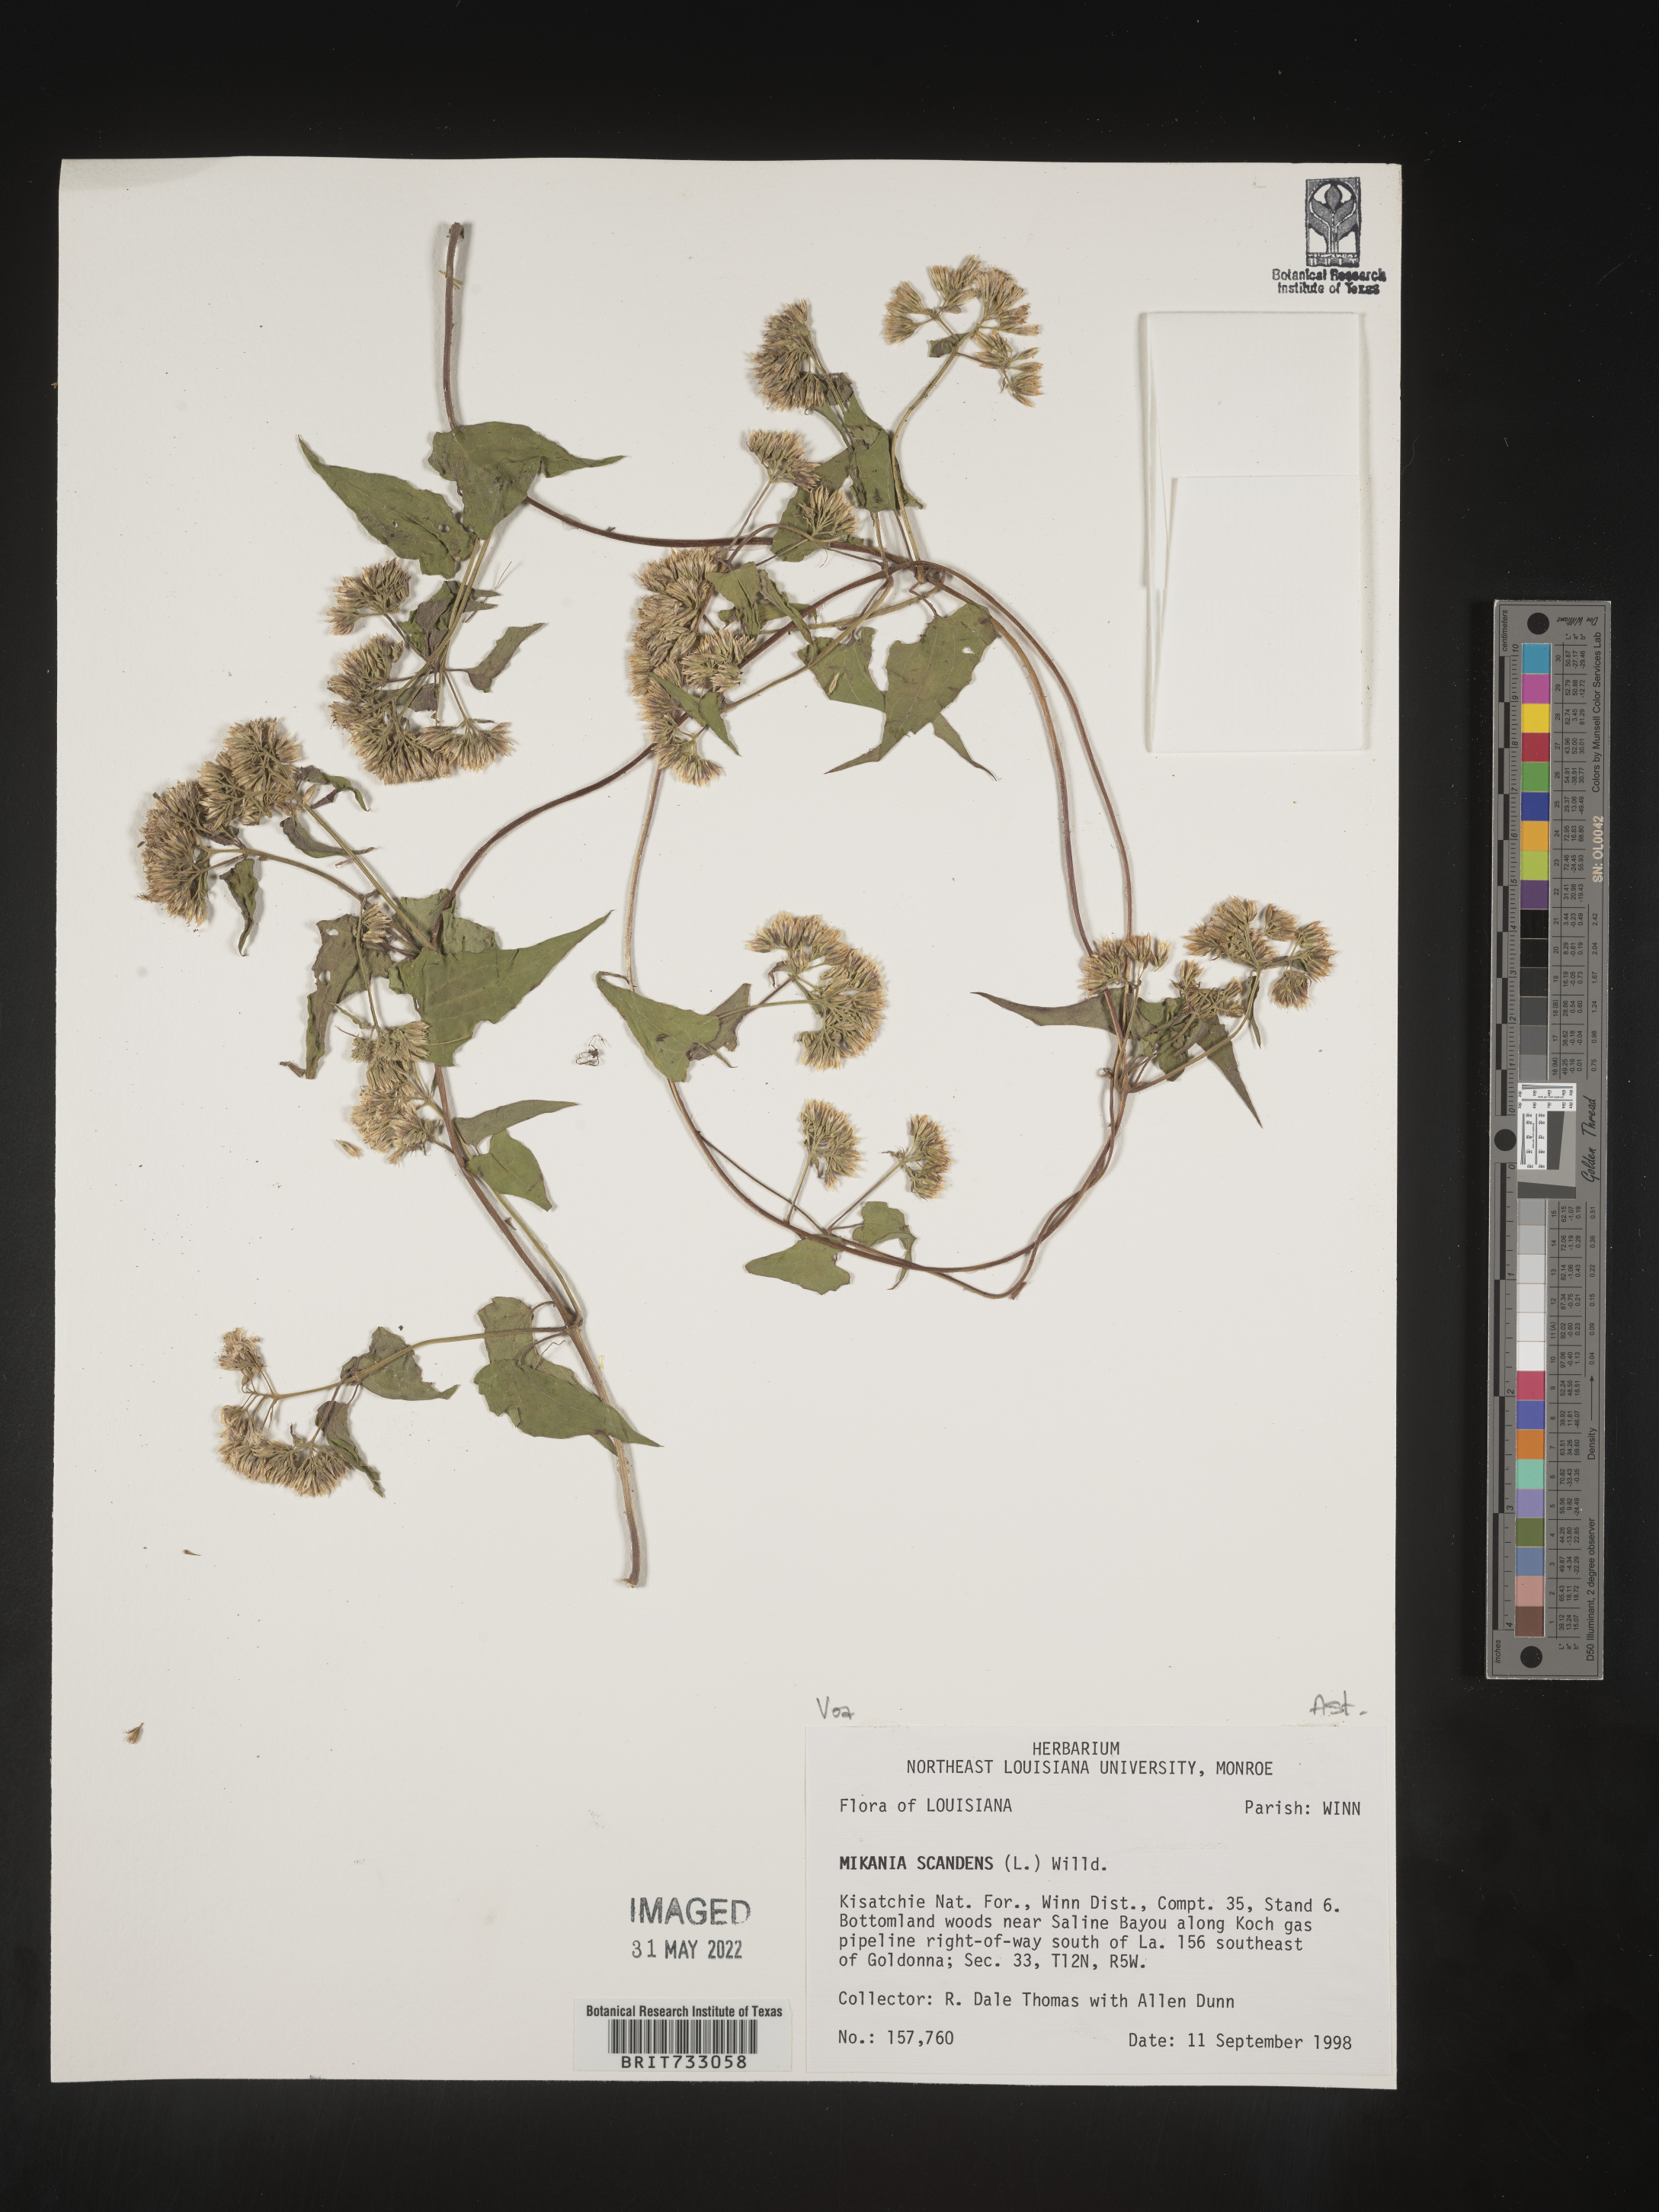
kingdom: Plantae
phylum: Tracheophyta
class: Magnoliopsida
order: Asterales
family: Asteraceae
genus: Mikania
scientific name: Mikania scandens
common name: Climbing hempvine
